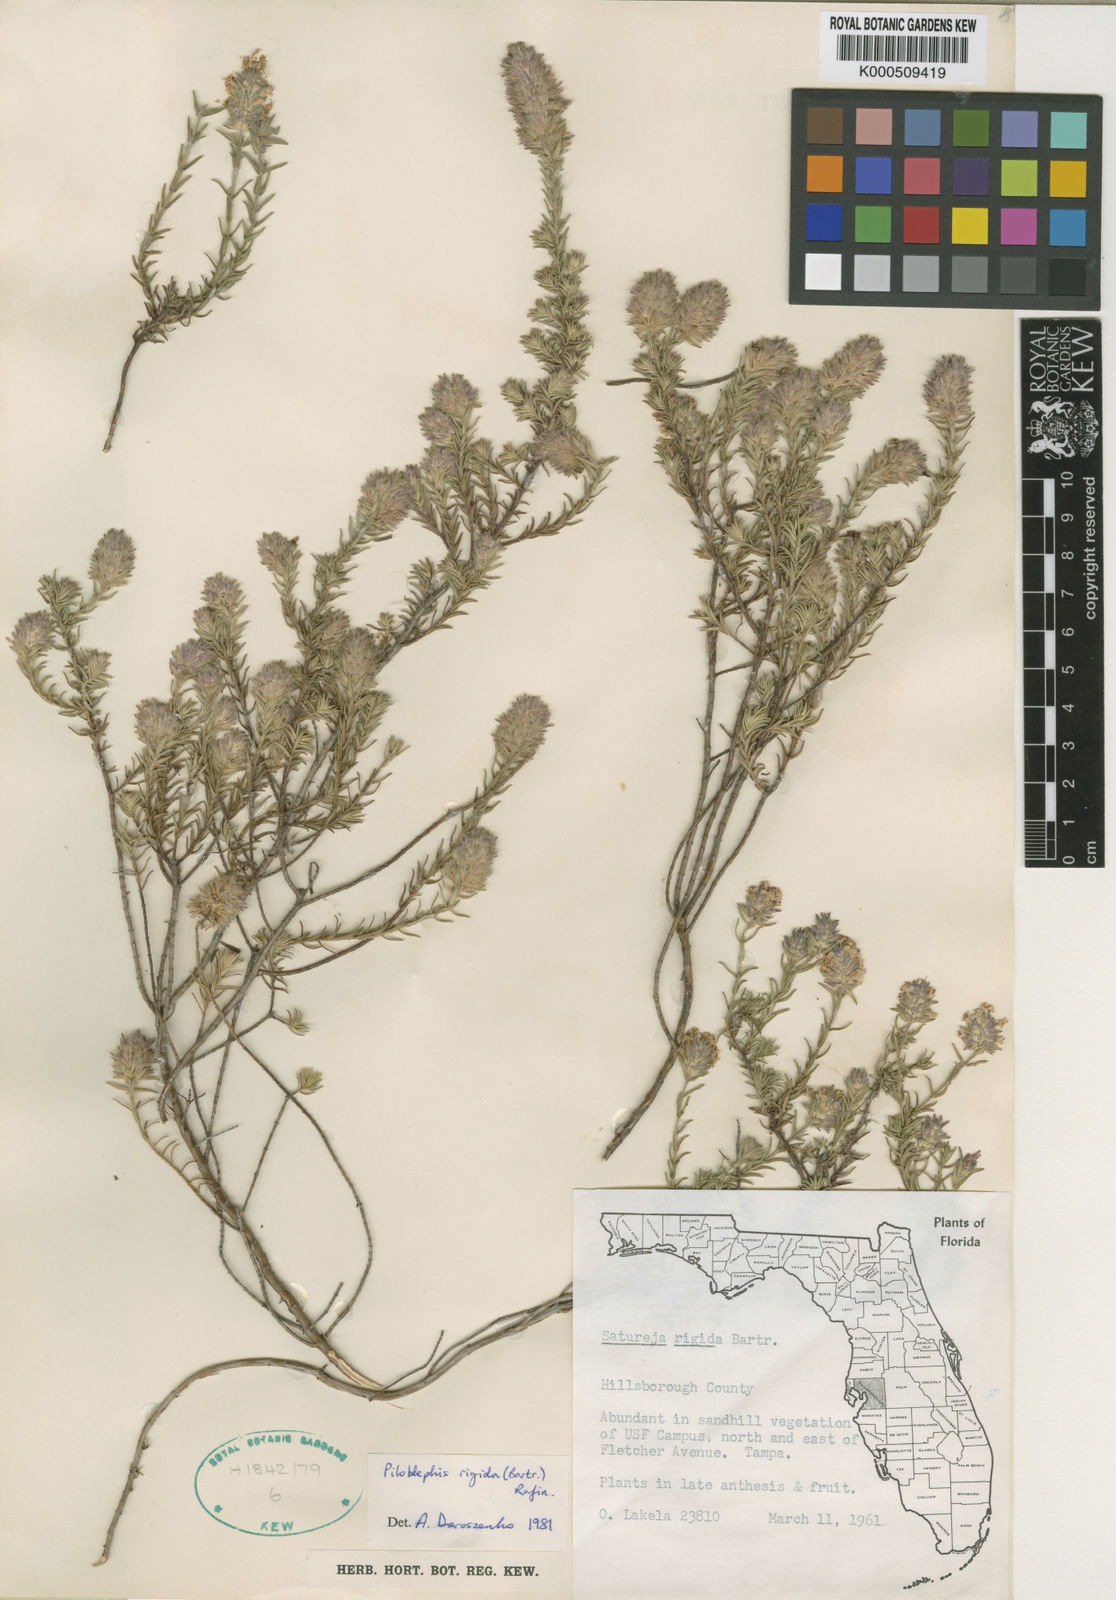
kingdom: Plantae
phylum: Tracheophyta
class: Magnoliopsida
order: Lamiales
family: Lamiaceae
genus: Piloblephis
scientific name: Piloblephis rigida
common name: Wild pennyroyal
